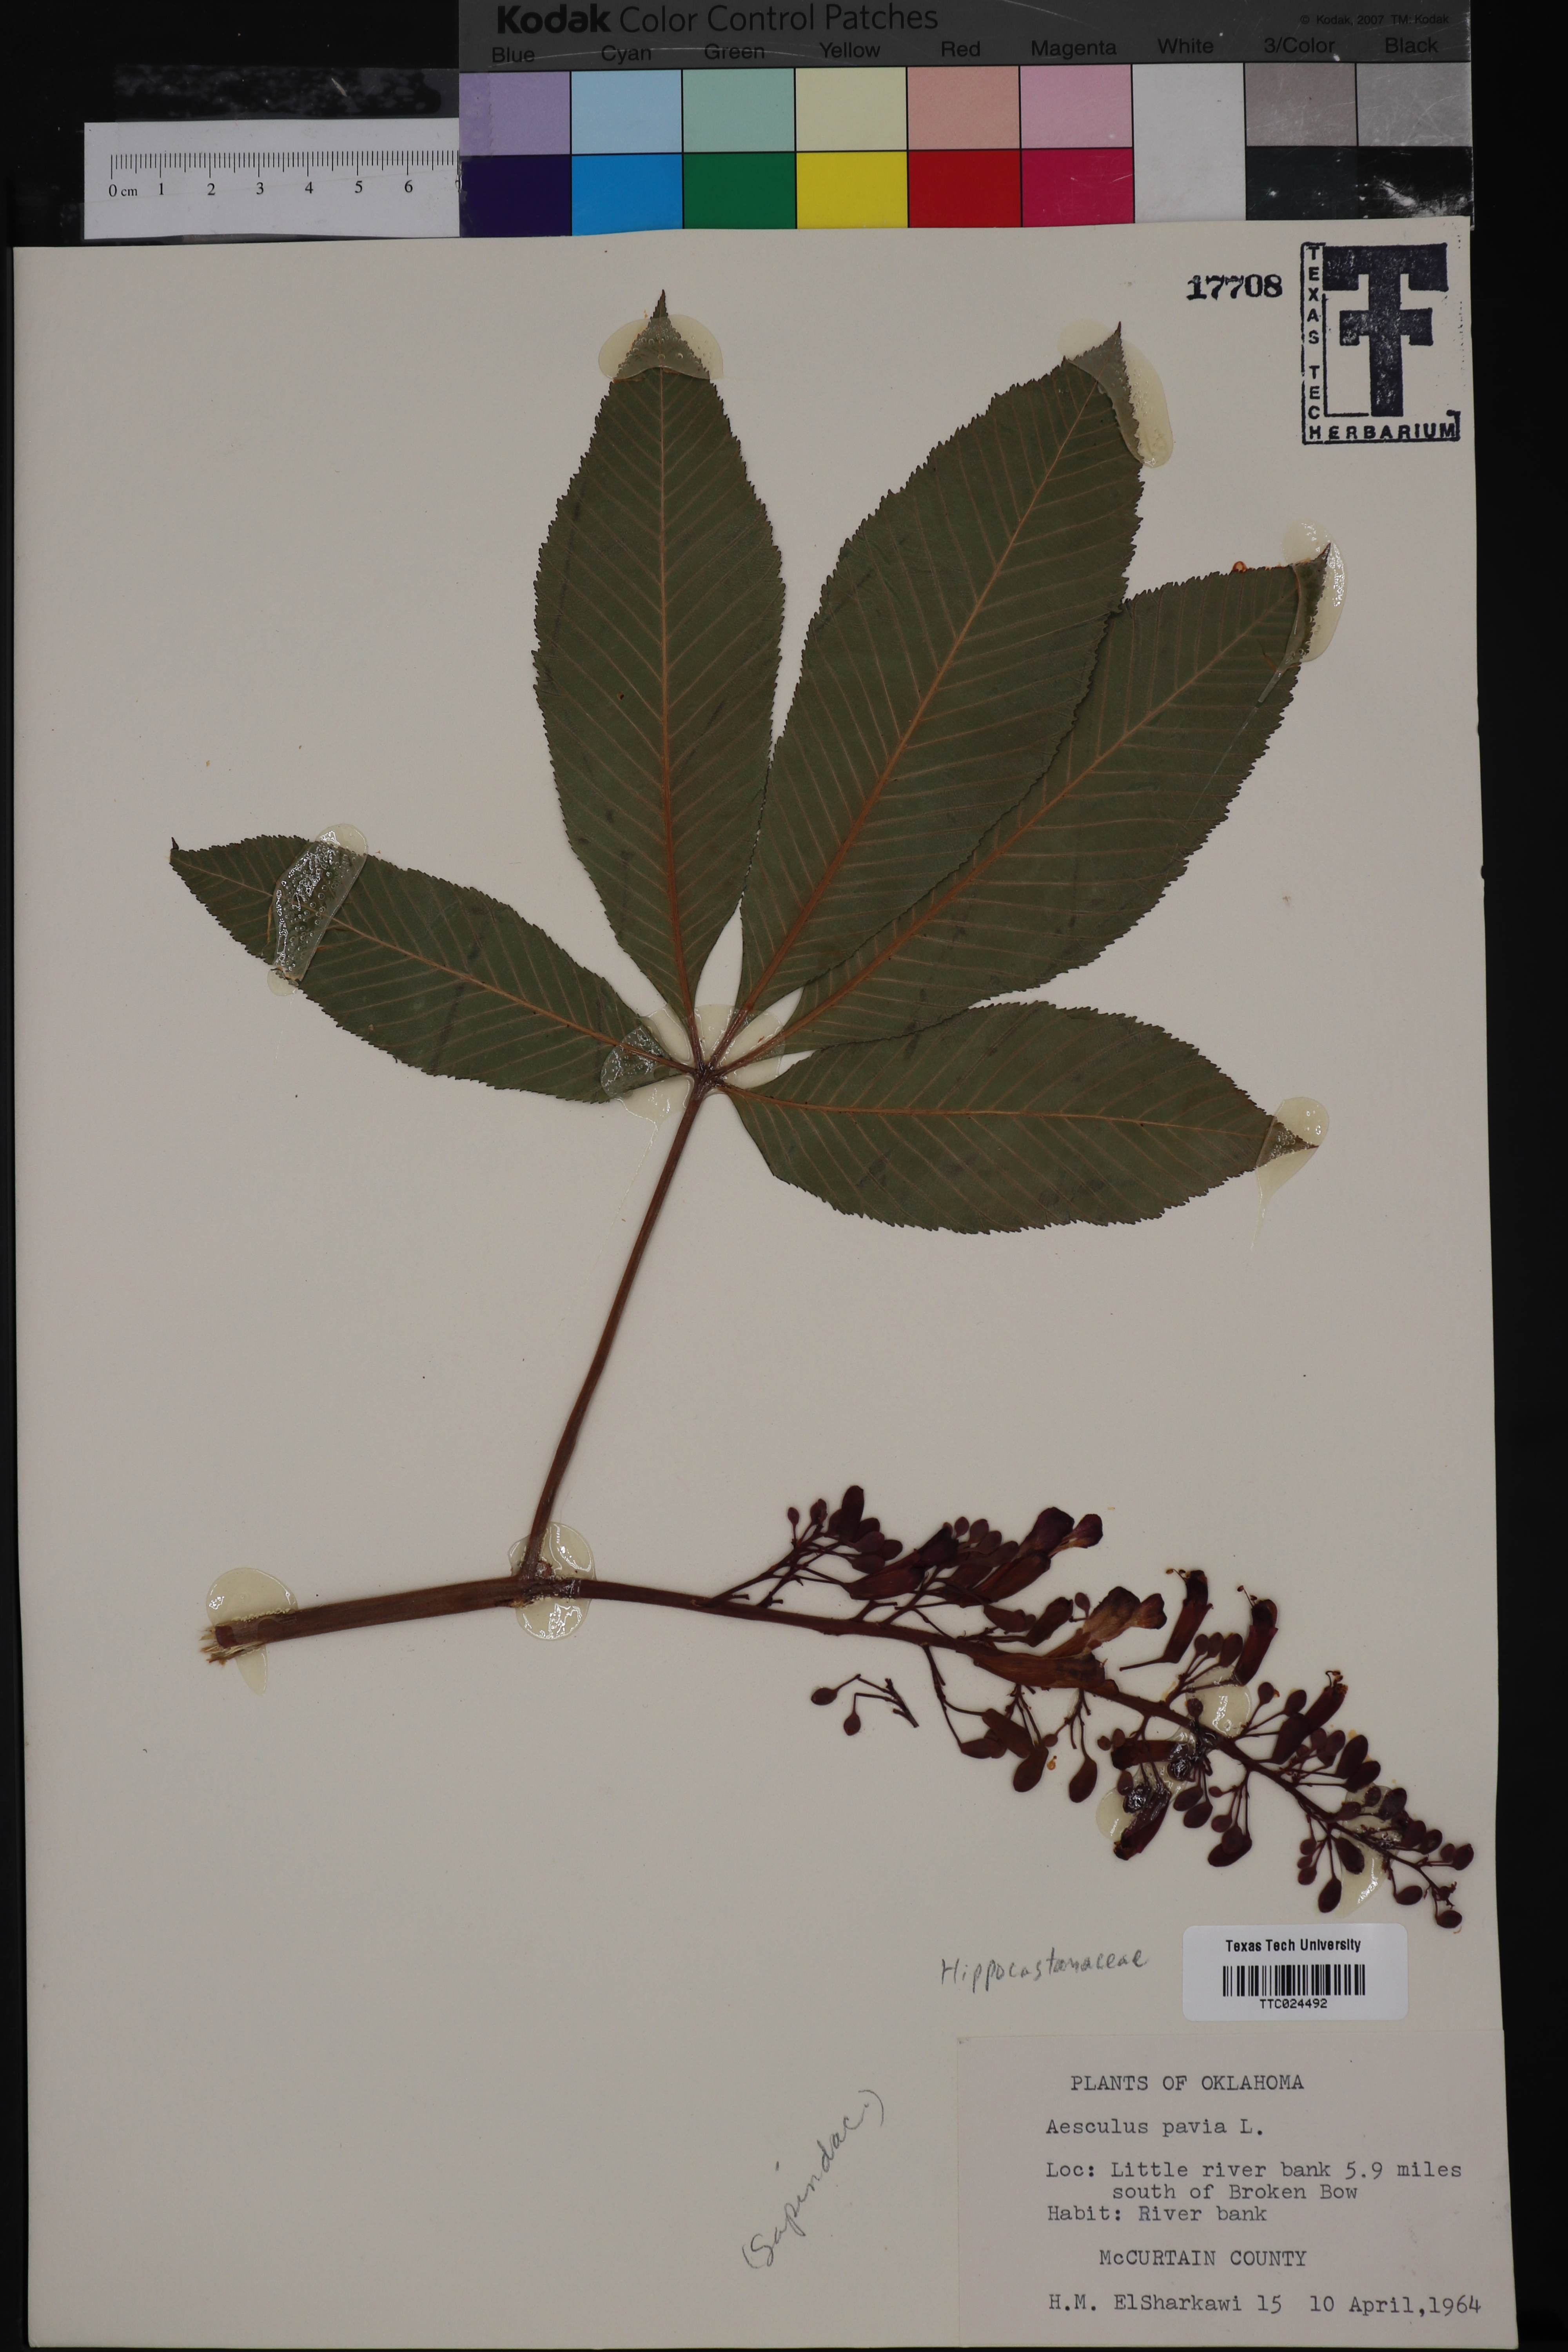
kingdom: Plantae
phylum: Tracheophyta
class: Magnoliopsida
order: Sapindales
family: Sapindaceae
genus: Aesculus
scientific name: Aesculus pavia
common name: Red buckeye
